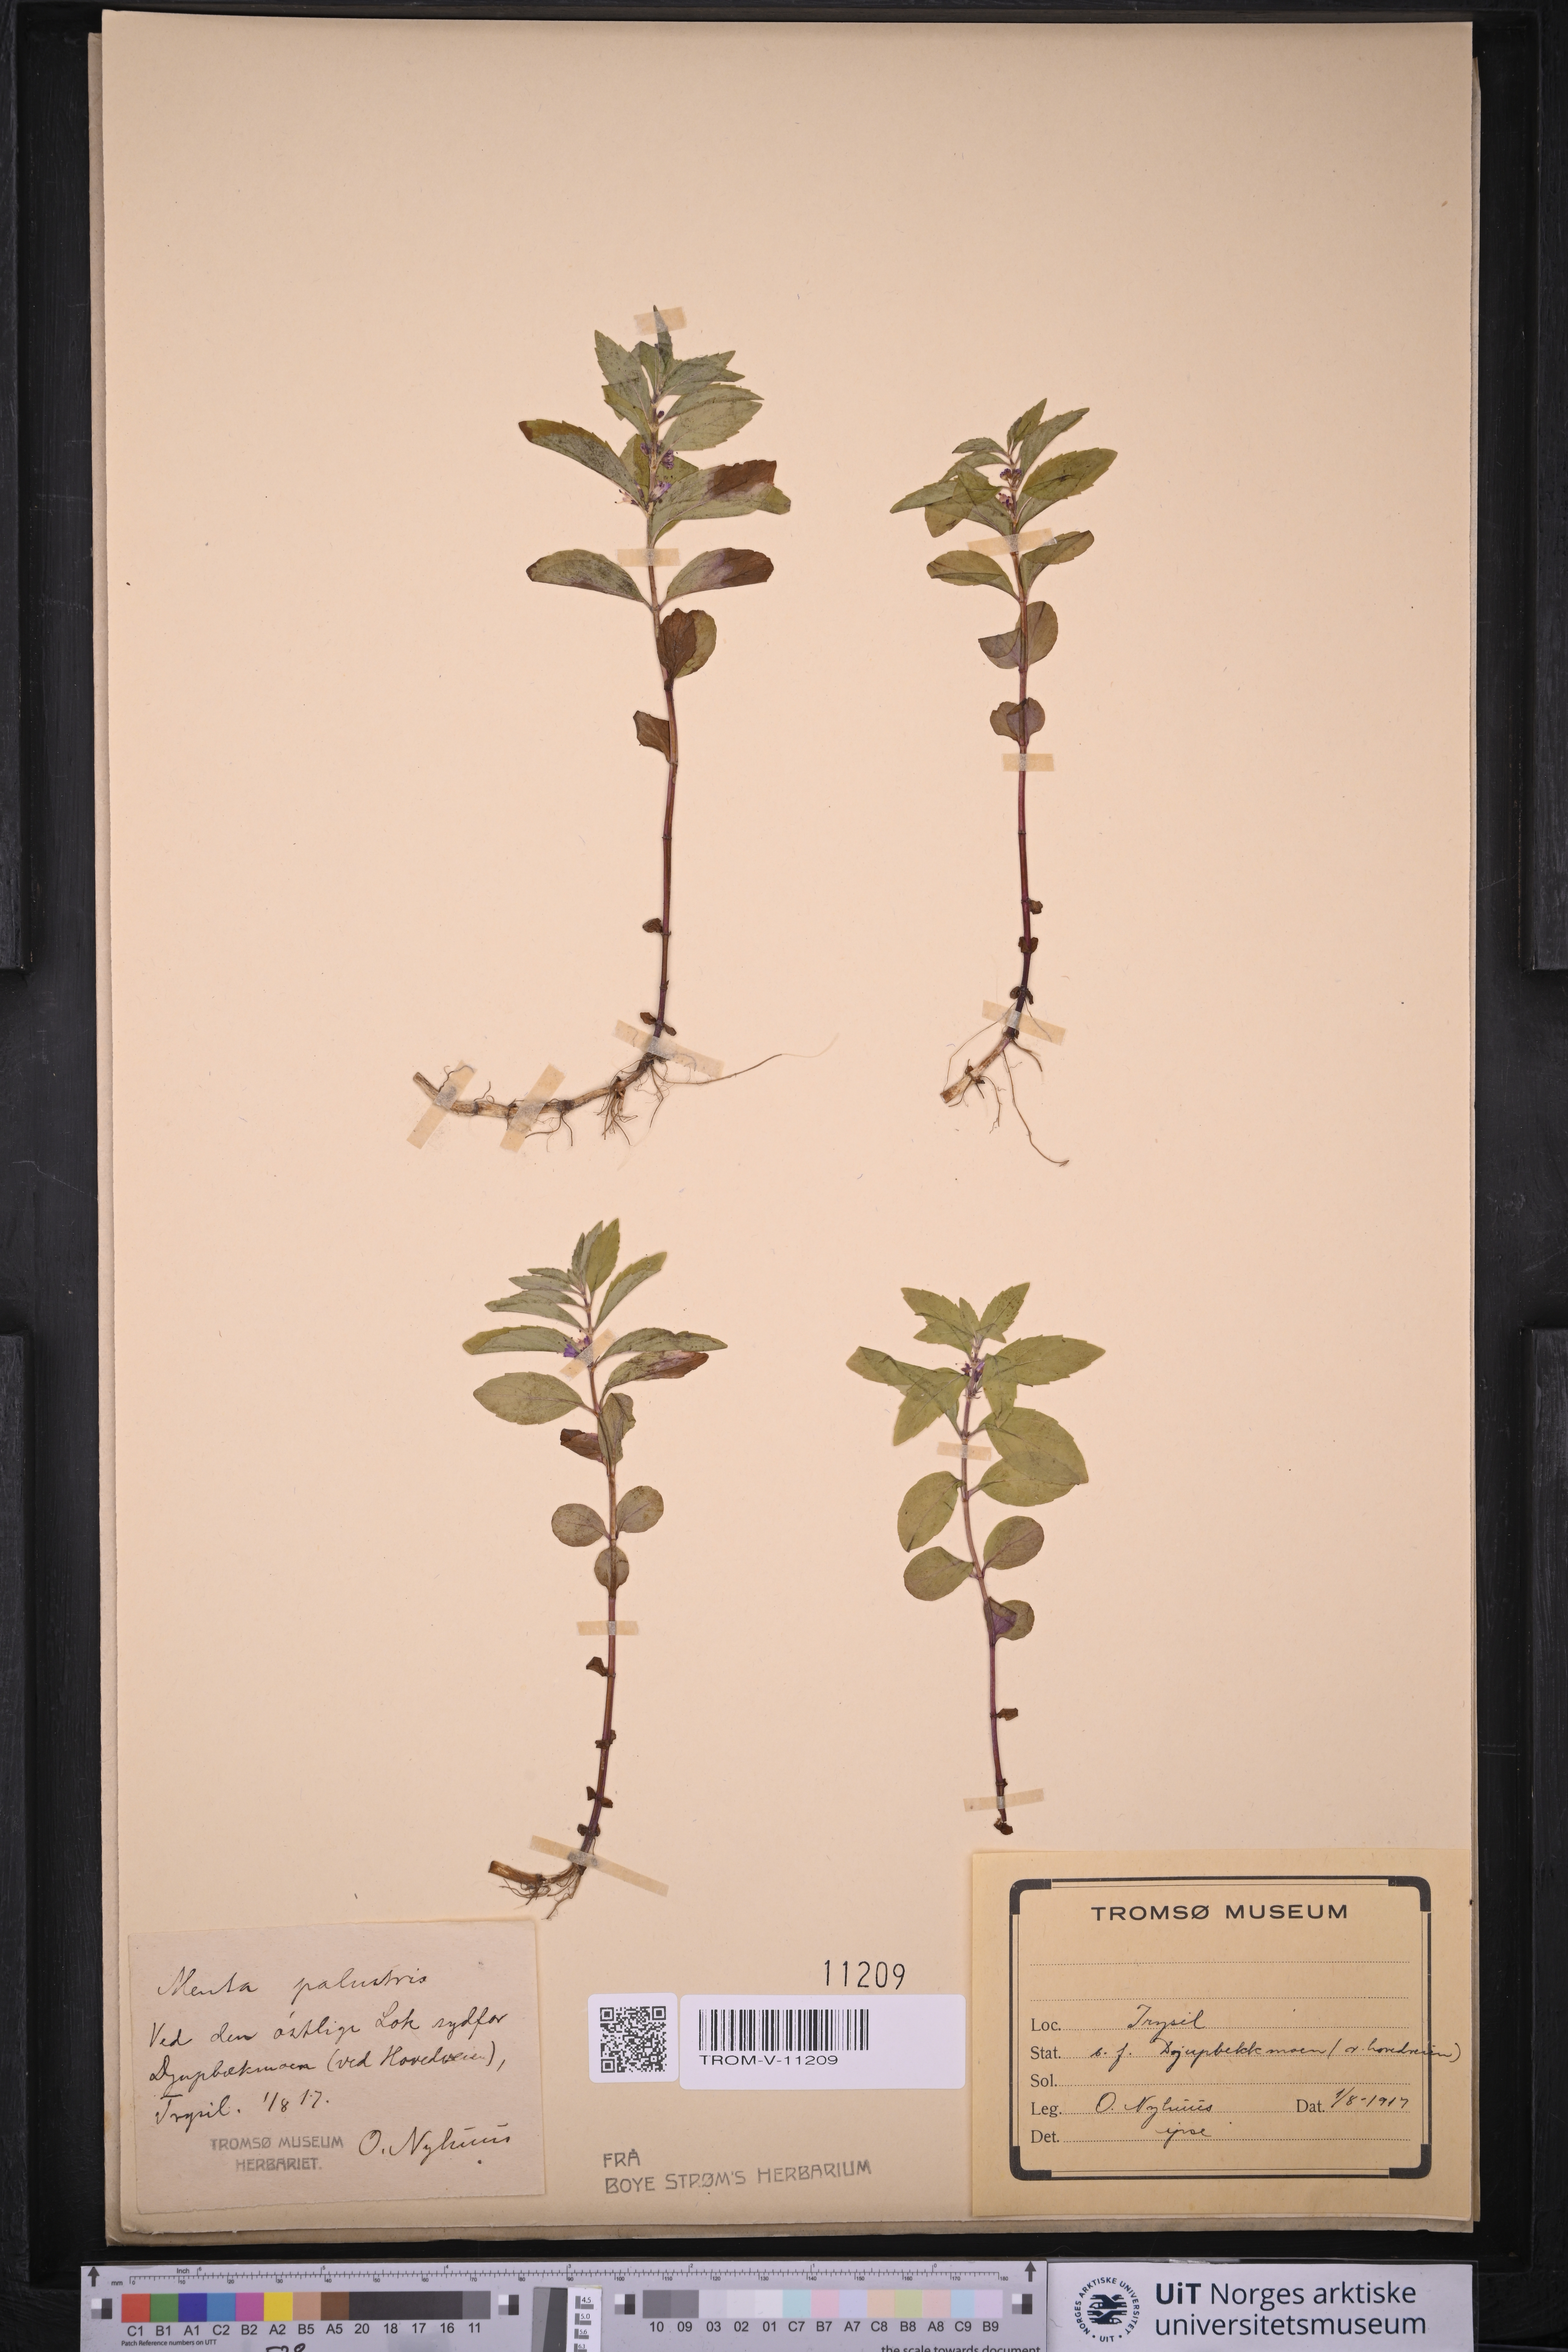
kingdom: Plantae
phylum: Tracheophyta
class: Magnoliopsida
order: Lamiales
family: Lamiaceae
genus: Mentha
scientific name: Mentha arvensis
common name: Corn mint
